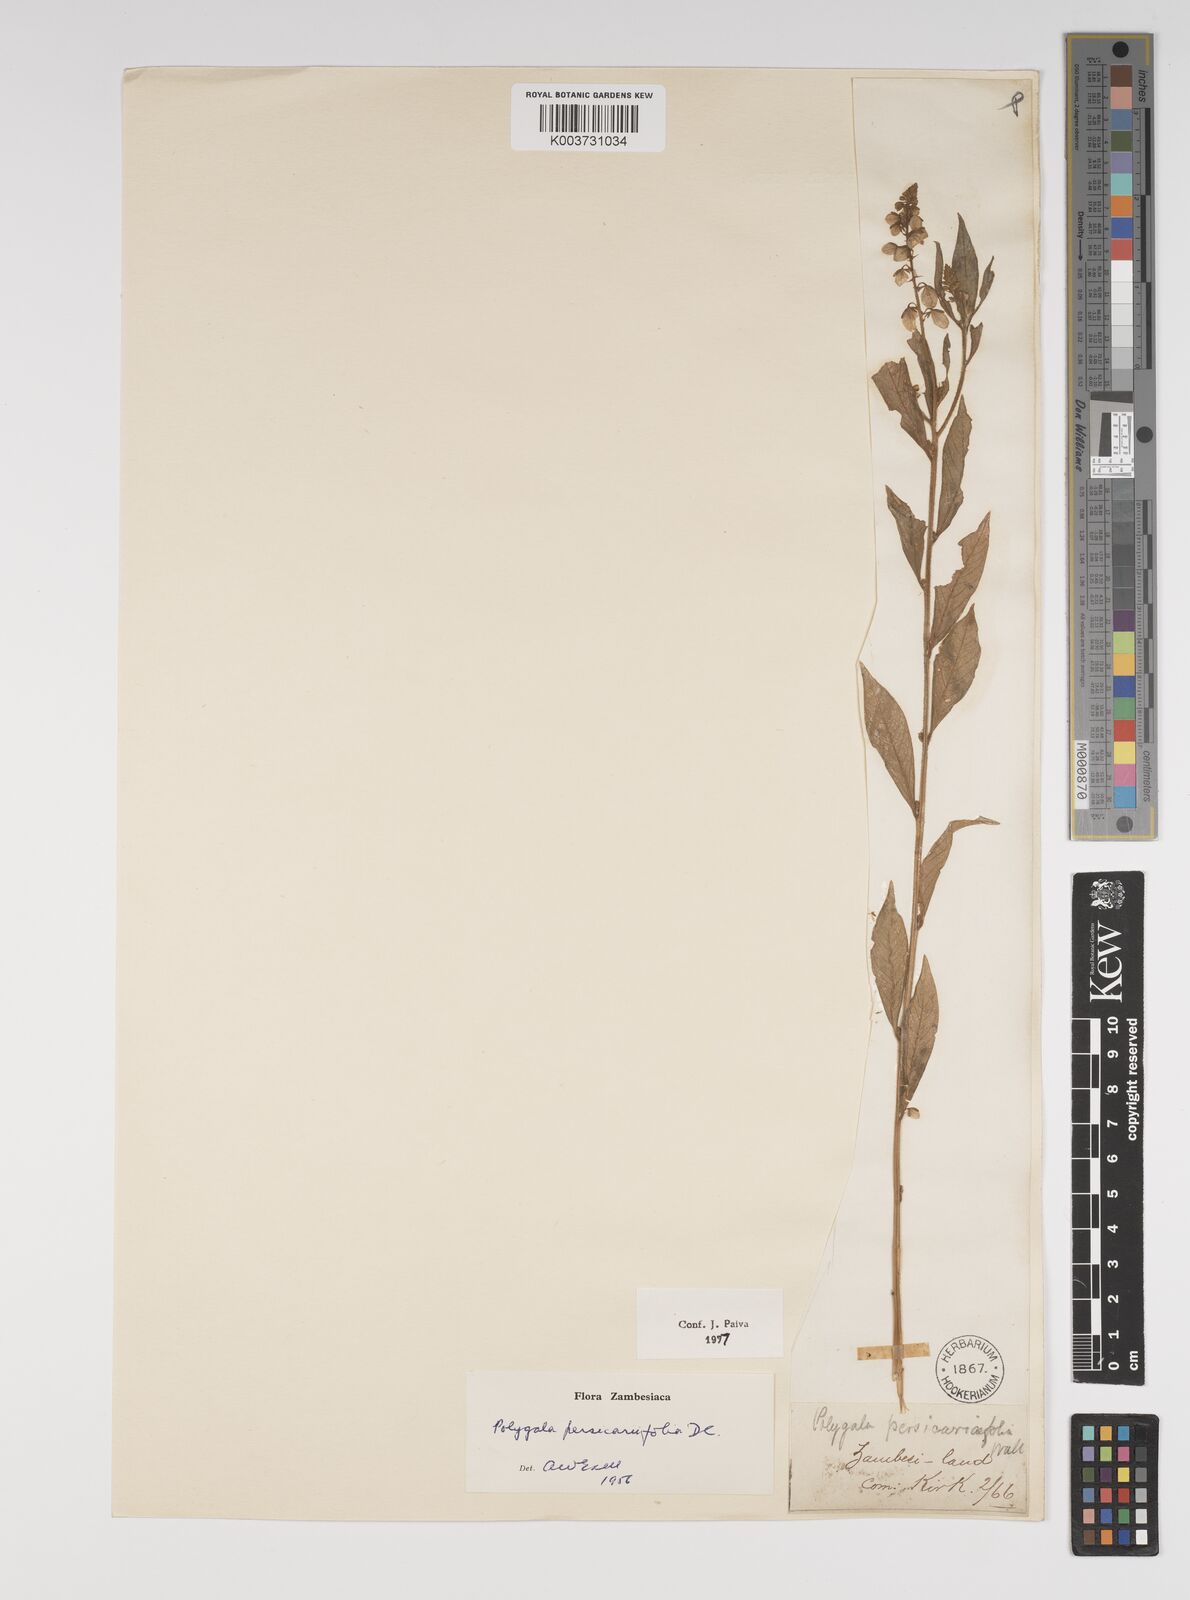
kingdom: Plantae
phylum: Tracheophyta
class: Magnoliopsida
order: Fabales
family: Polygalaceae
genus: Polygala
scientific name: Polygala persicariifolia
